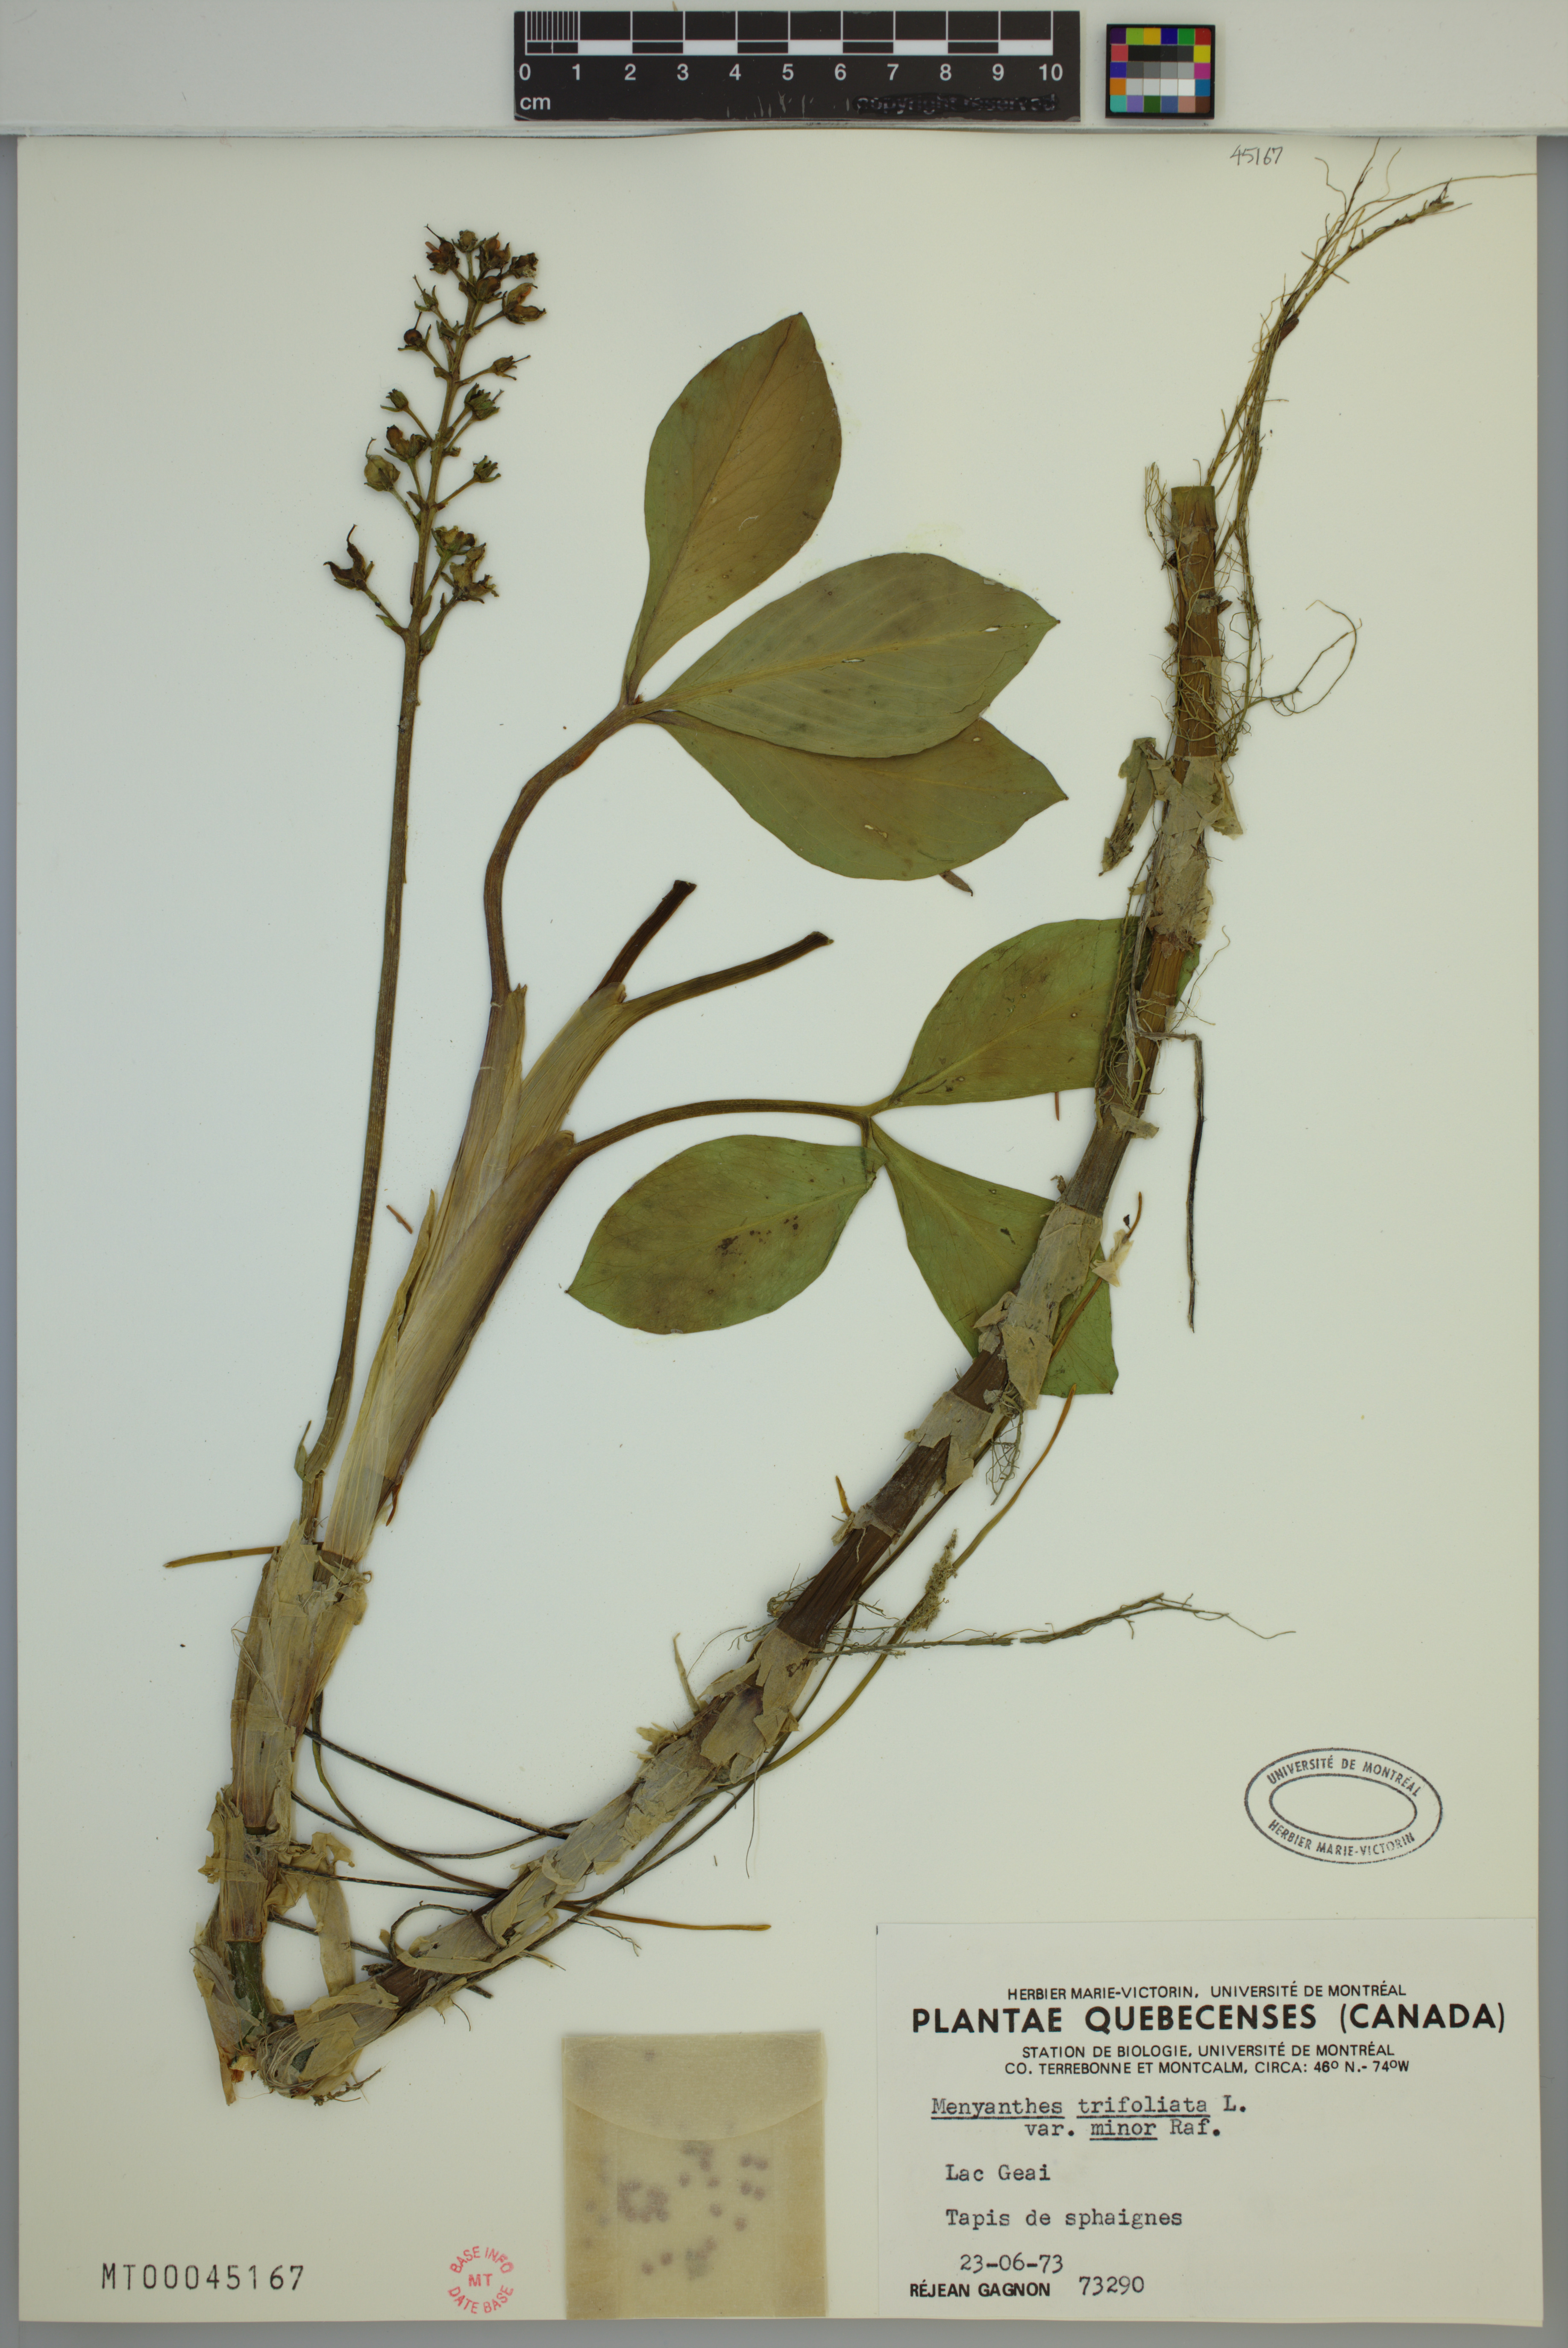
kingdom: Plantae
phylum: Tracheophyta
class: Magnoliopsida
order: Asterales
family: Menyanthaceae
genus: Menyanthes
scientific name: Menyanthes trifoliata
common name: Bogbean
